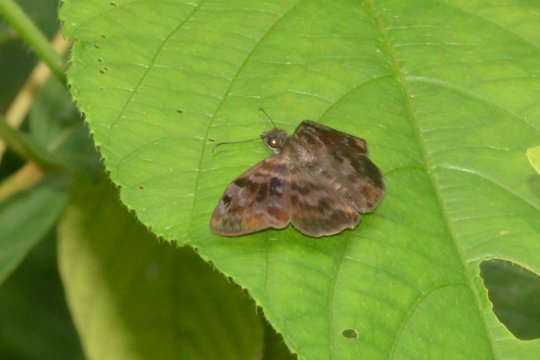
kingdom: Animalia
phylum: Arthropoda
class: Insecta
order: Lepidoptera
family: Hesperiidae
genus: Ebrietas
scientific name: Ebrietas anacreon
